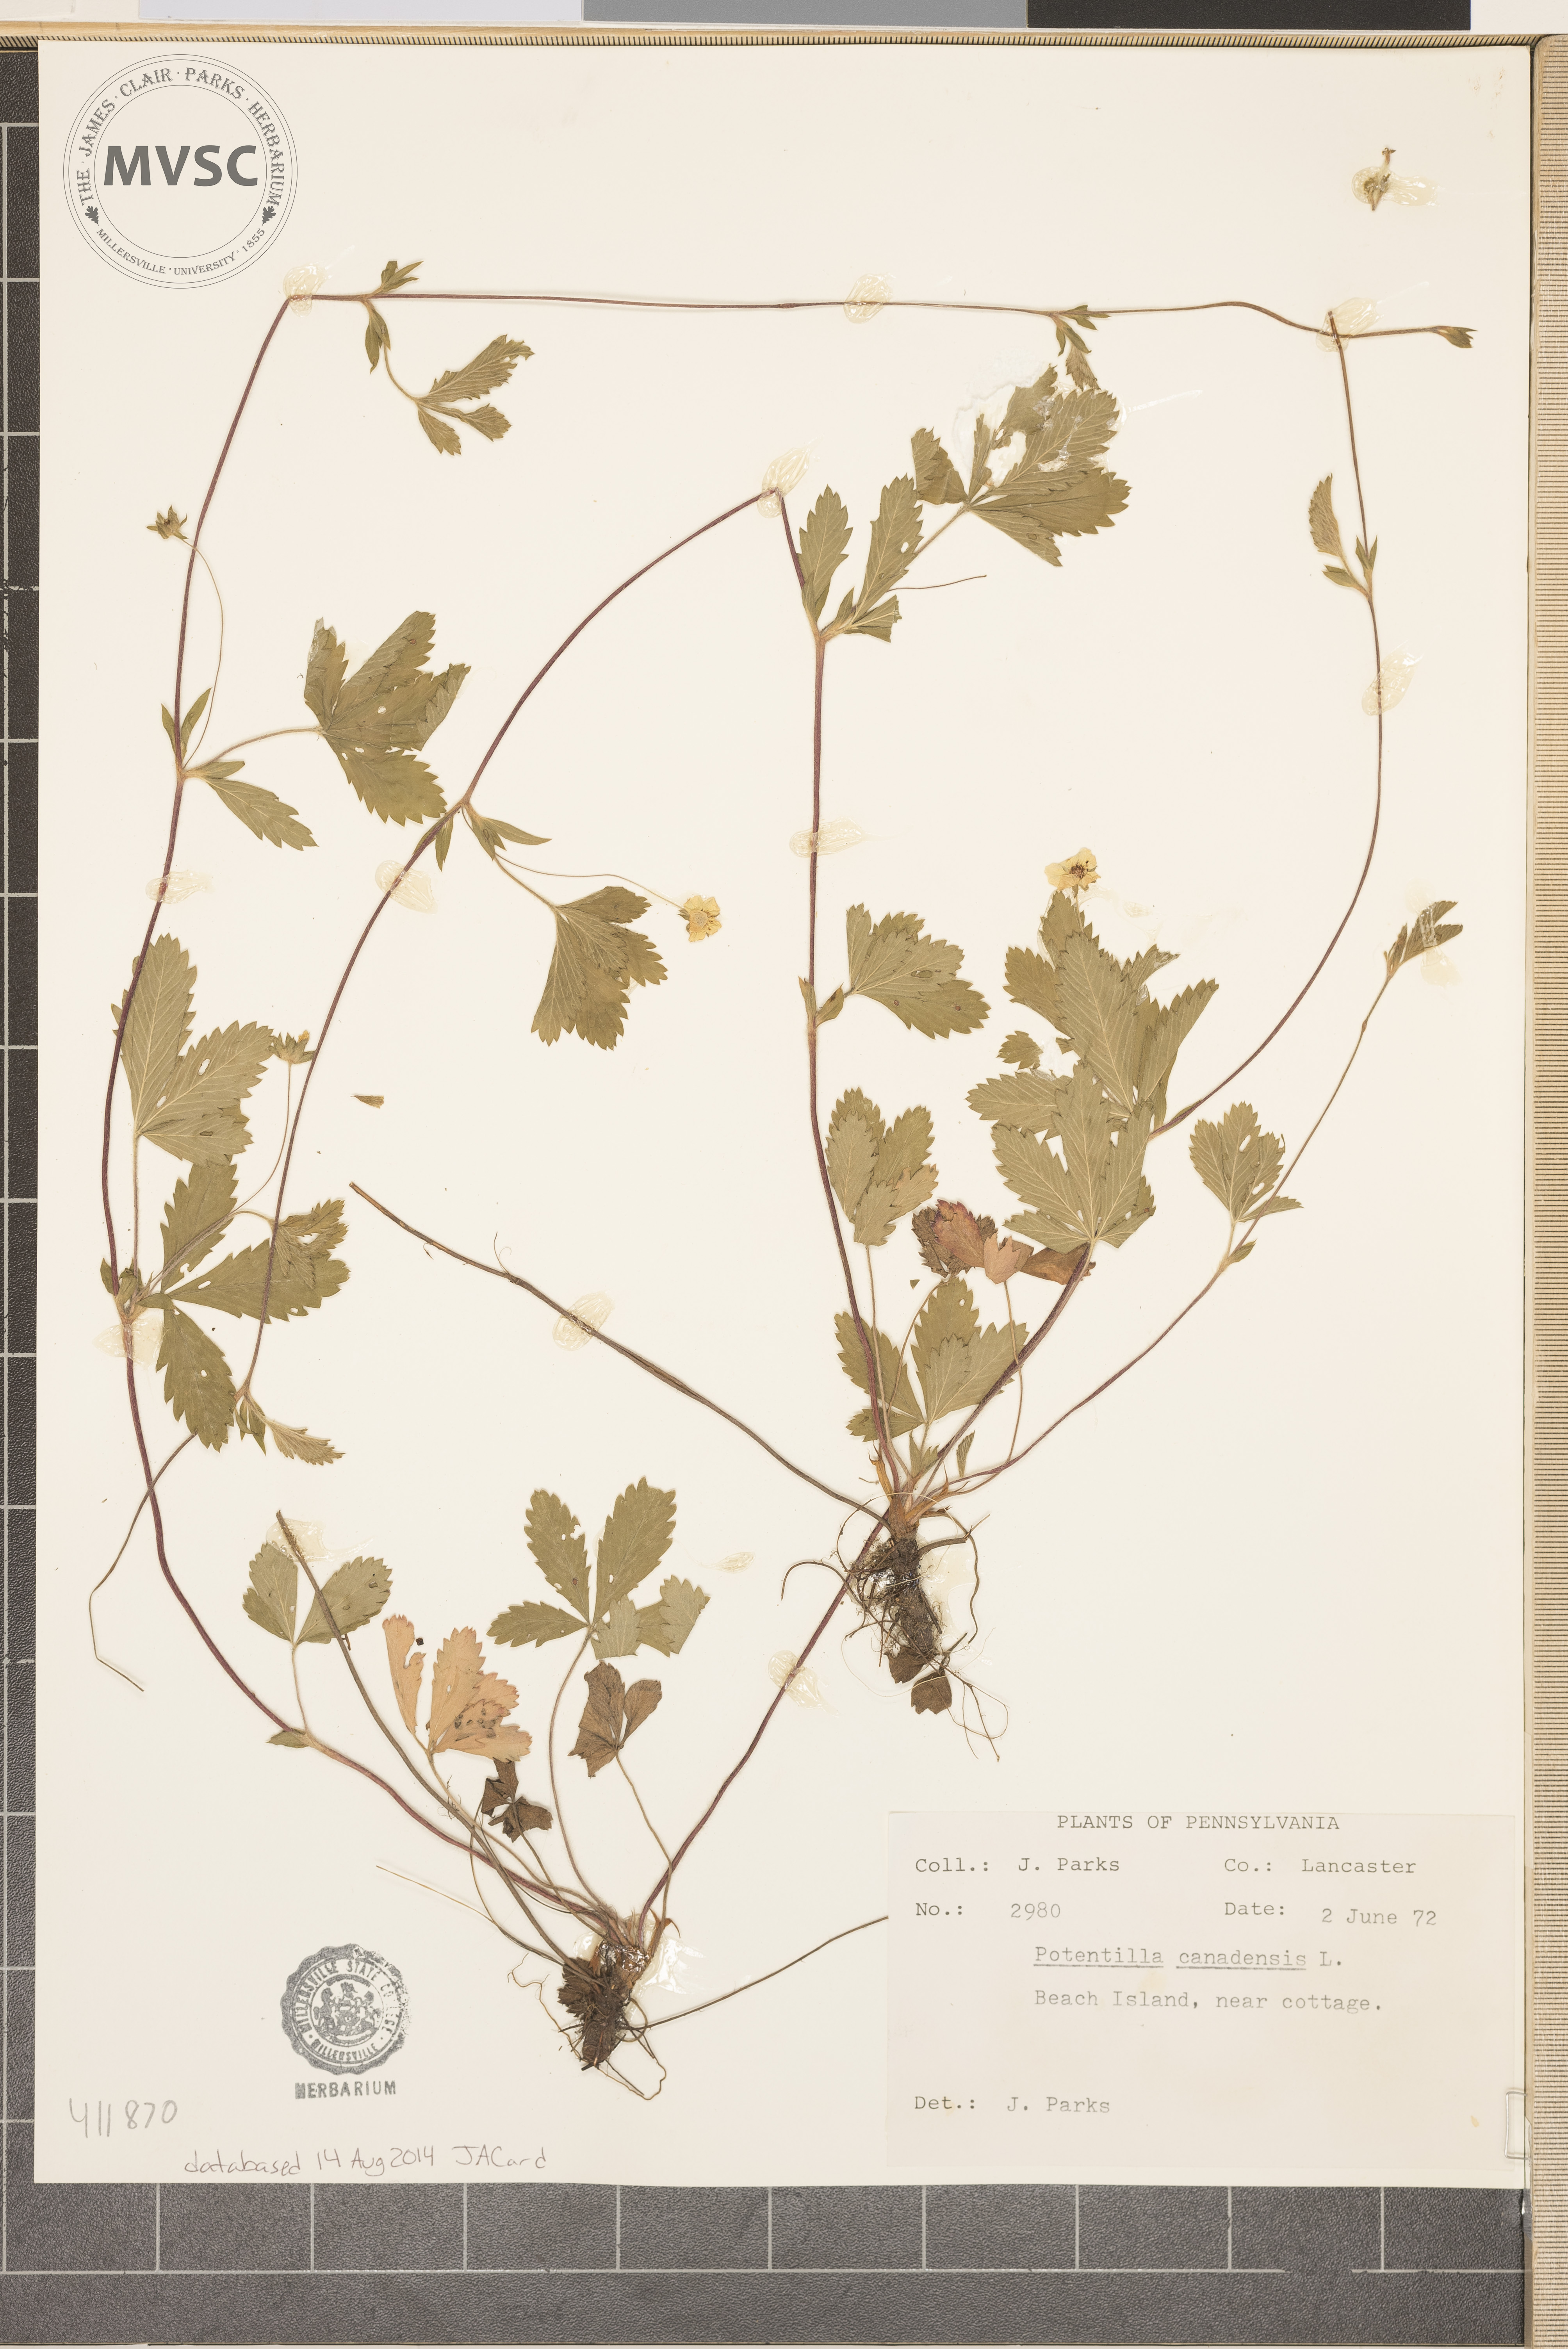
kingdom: Plantae
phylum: Tracheophyta
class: Magnoliopsida
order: Rosales
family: Rosaceae
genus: Potentilla
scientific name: Potentilla canadensis
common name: Canada cinquefoil
